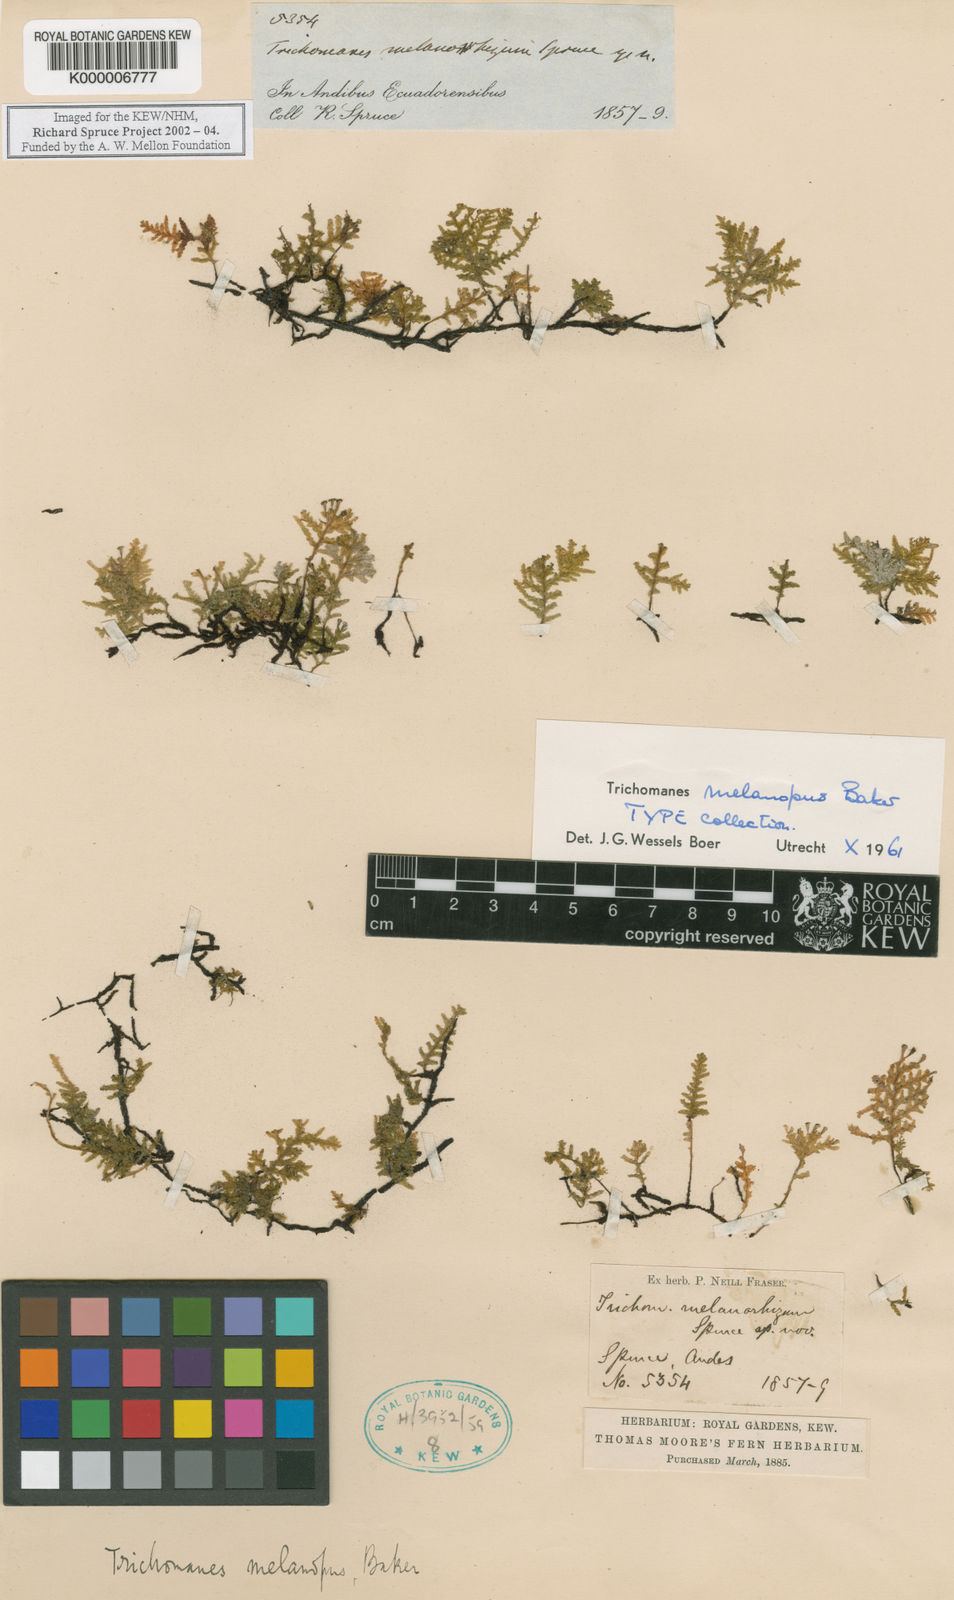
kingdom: Plantae
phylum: Tracheophyta
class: Polypodiopsida
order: Hymenophyllales
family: Hymenophyllaceae
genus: Didymoglossum
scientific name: Didymoglossum melanopus
